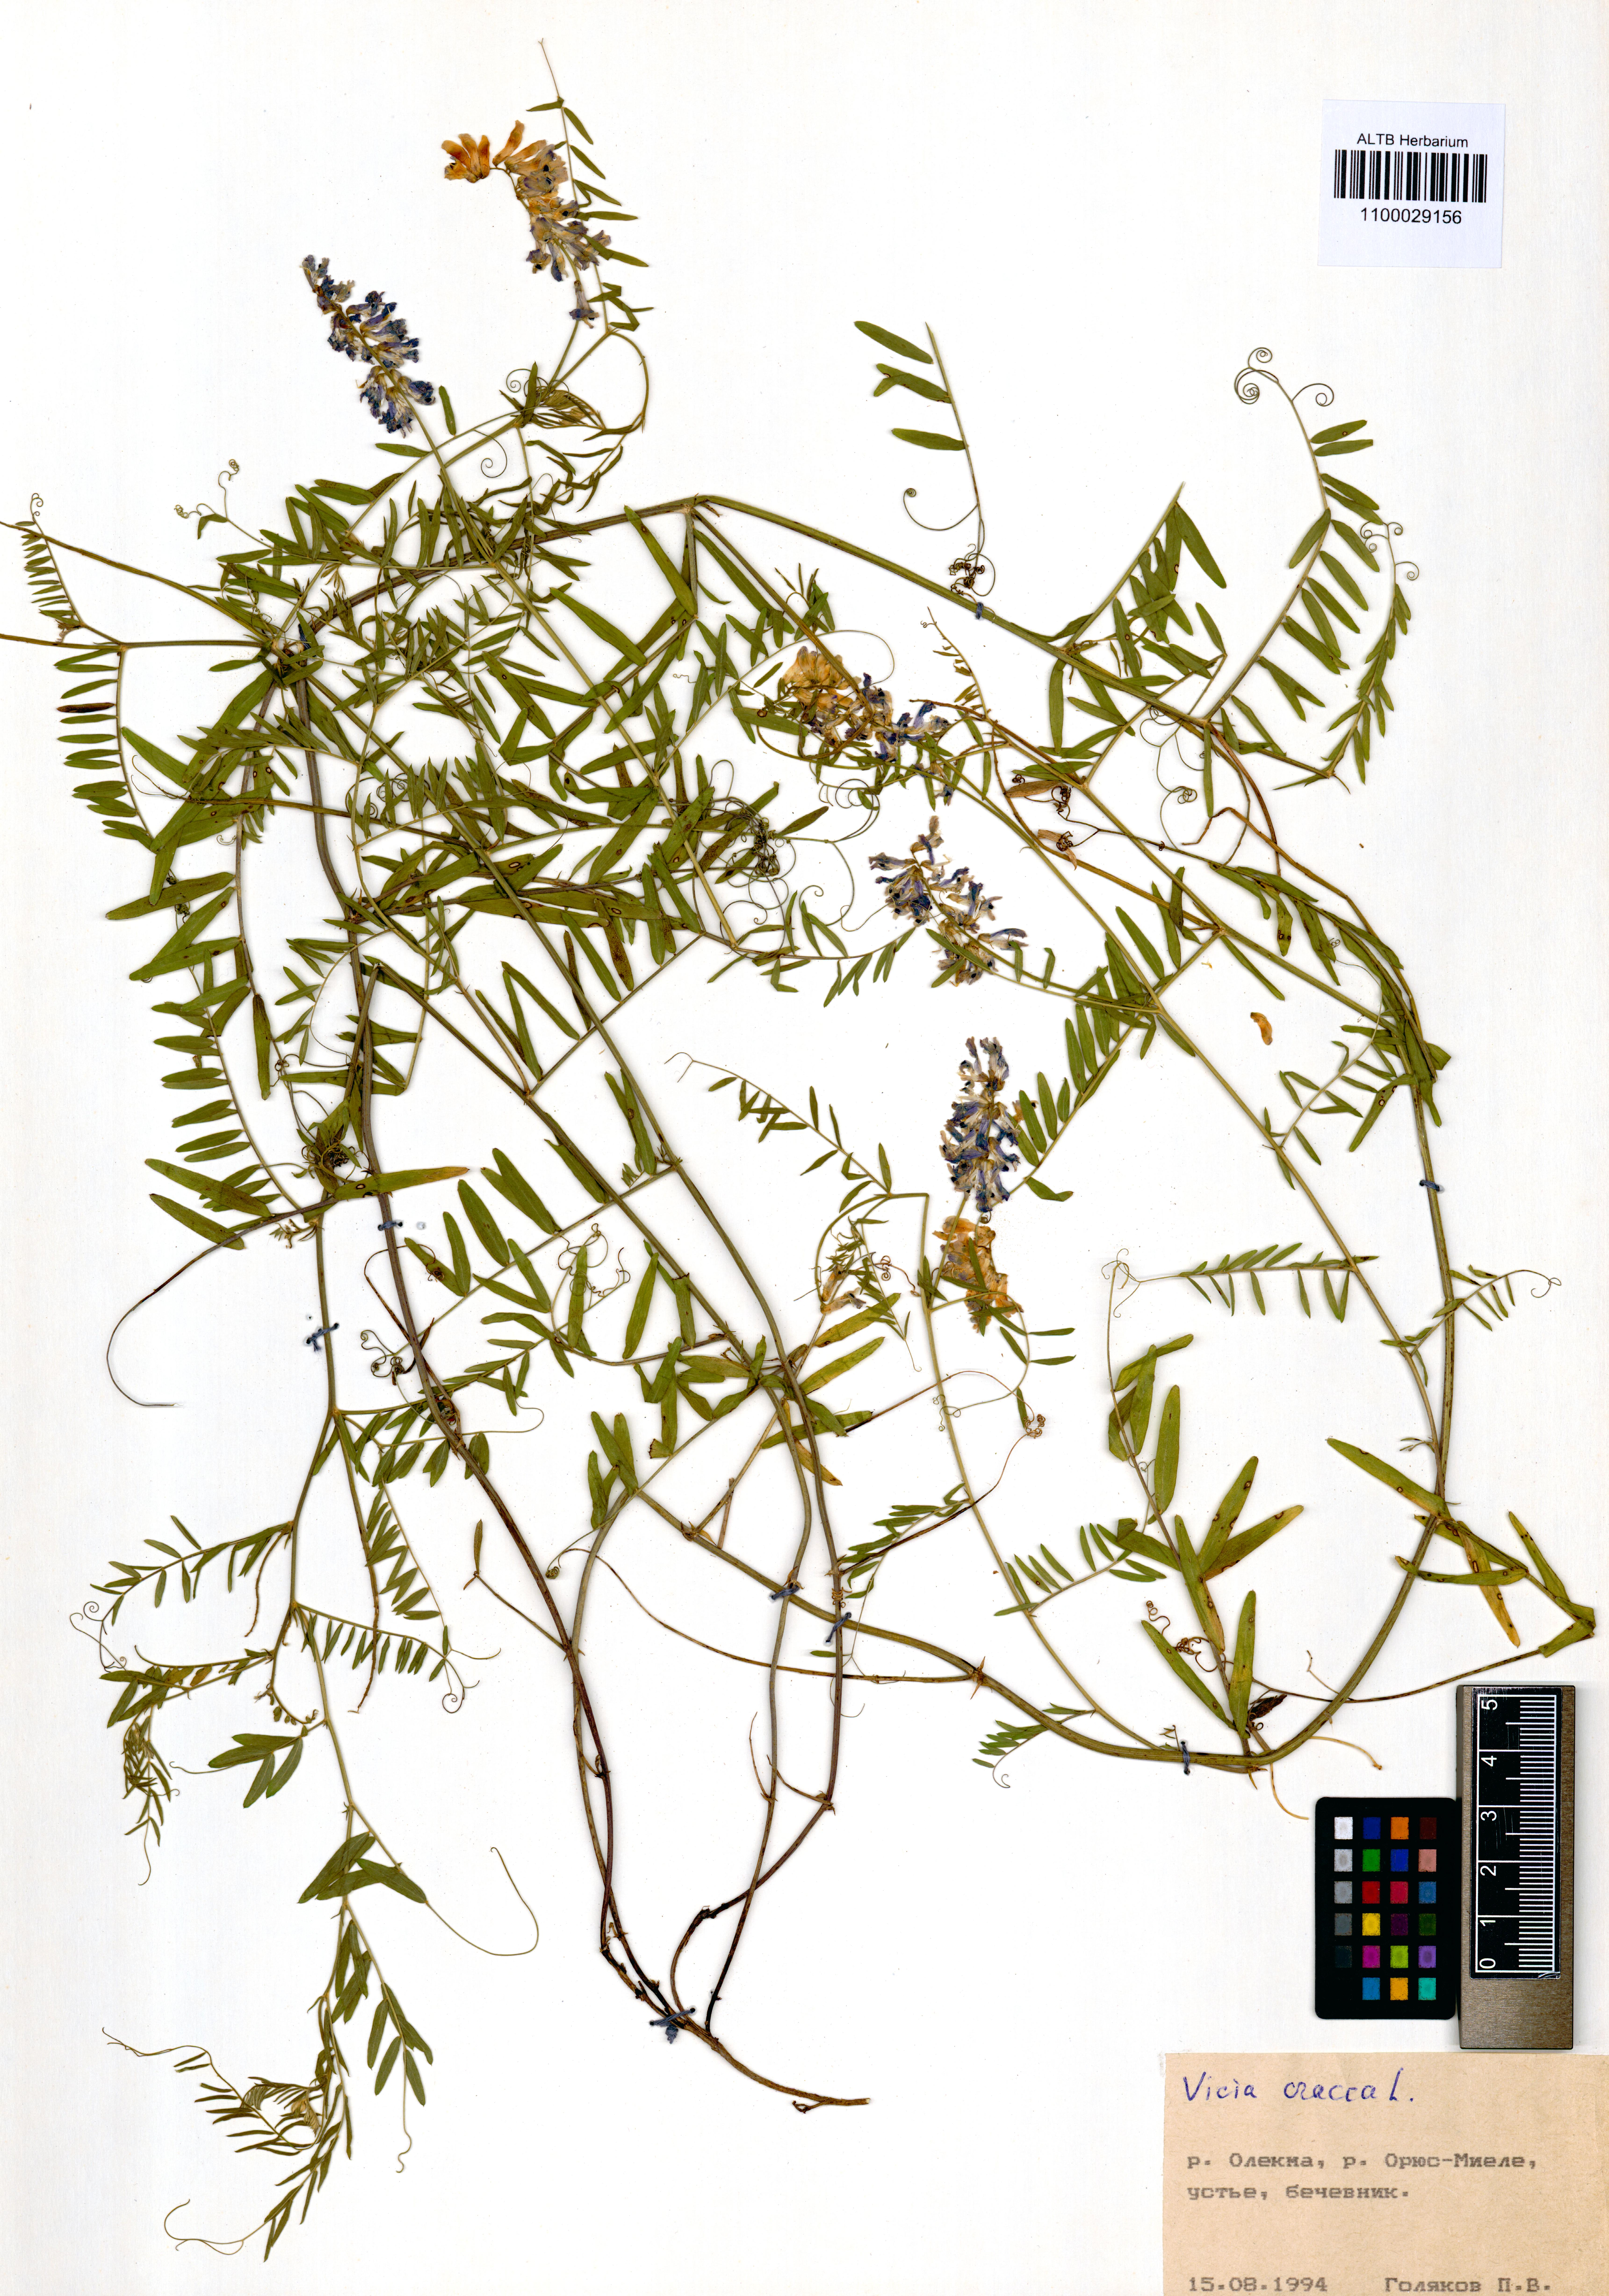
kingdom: Plantae
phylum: Tracheophyta
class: Magnoliopsida
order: Fabales
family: Fabaceae
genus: Vicia
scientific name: Vicia cracca
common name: Bird vetch
